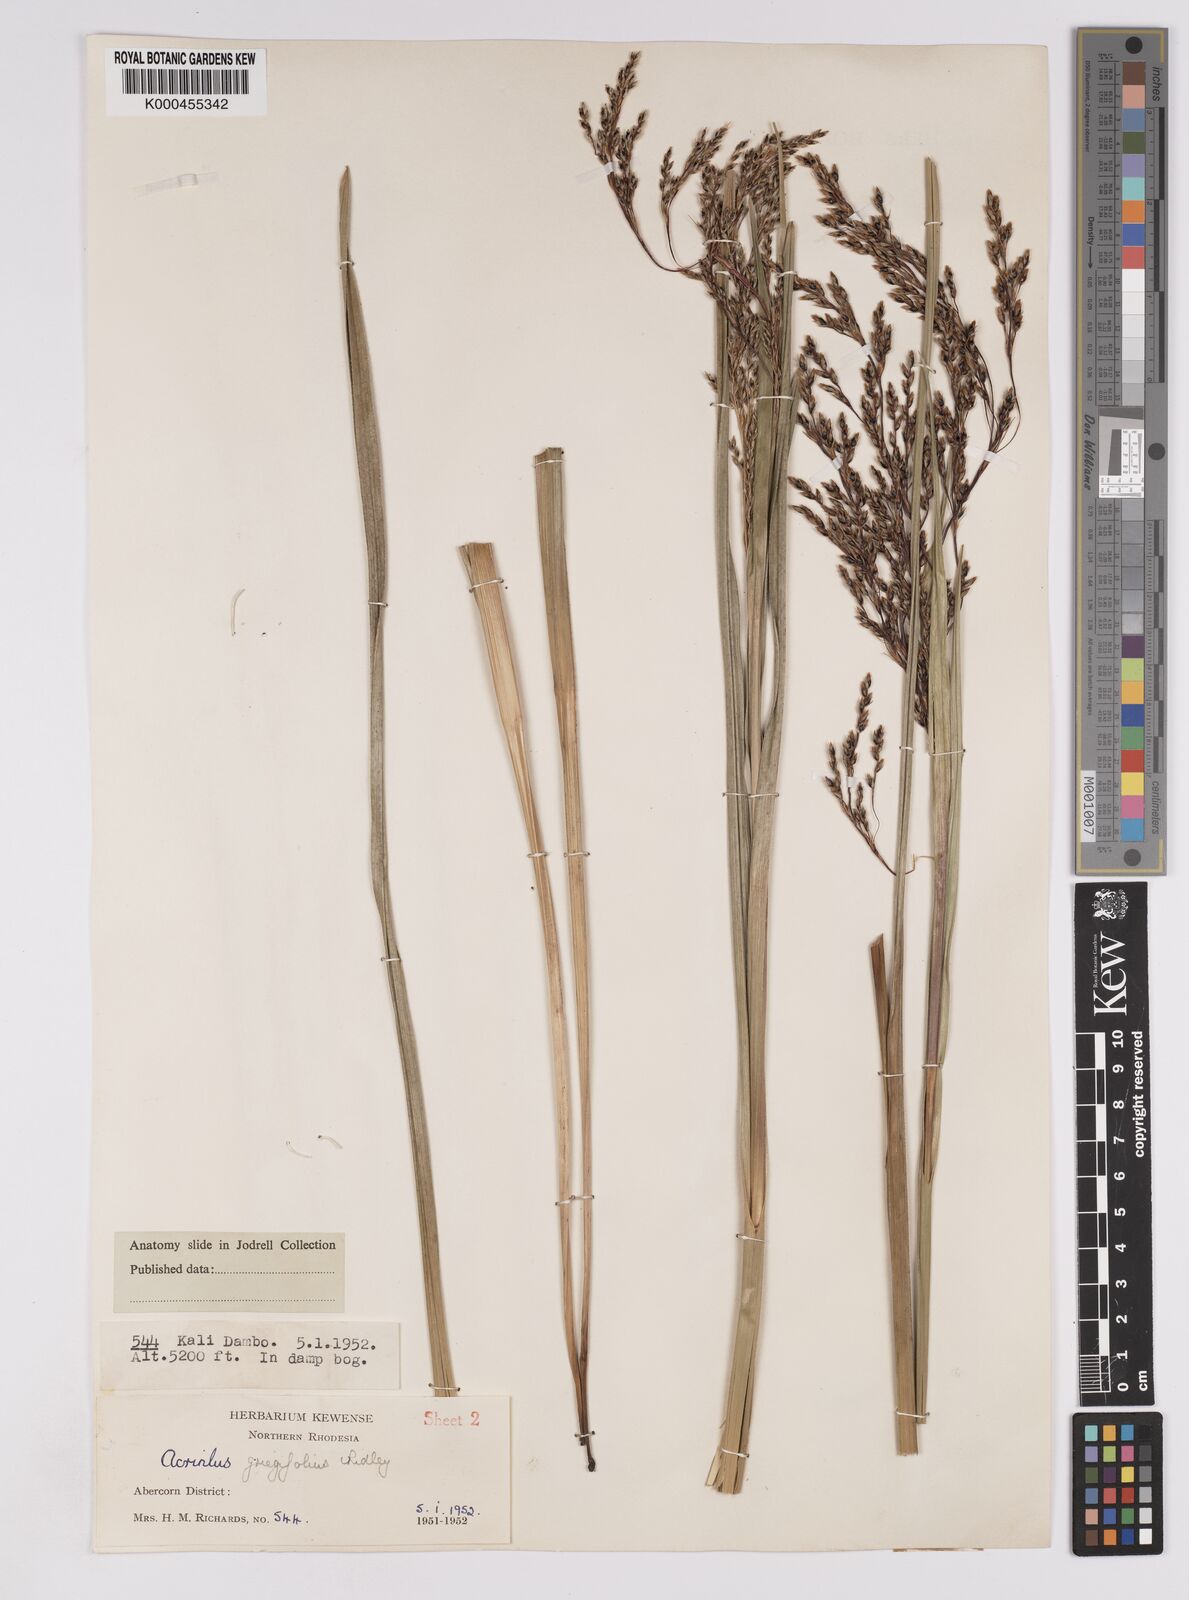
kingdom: Plantae
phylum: Tracheophyta
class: Liliopsida
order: Poales
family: Cyperaceae
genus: Scleria
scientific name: Scleria greigiifolia
